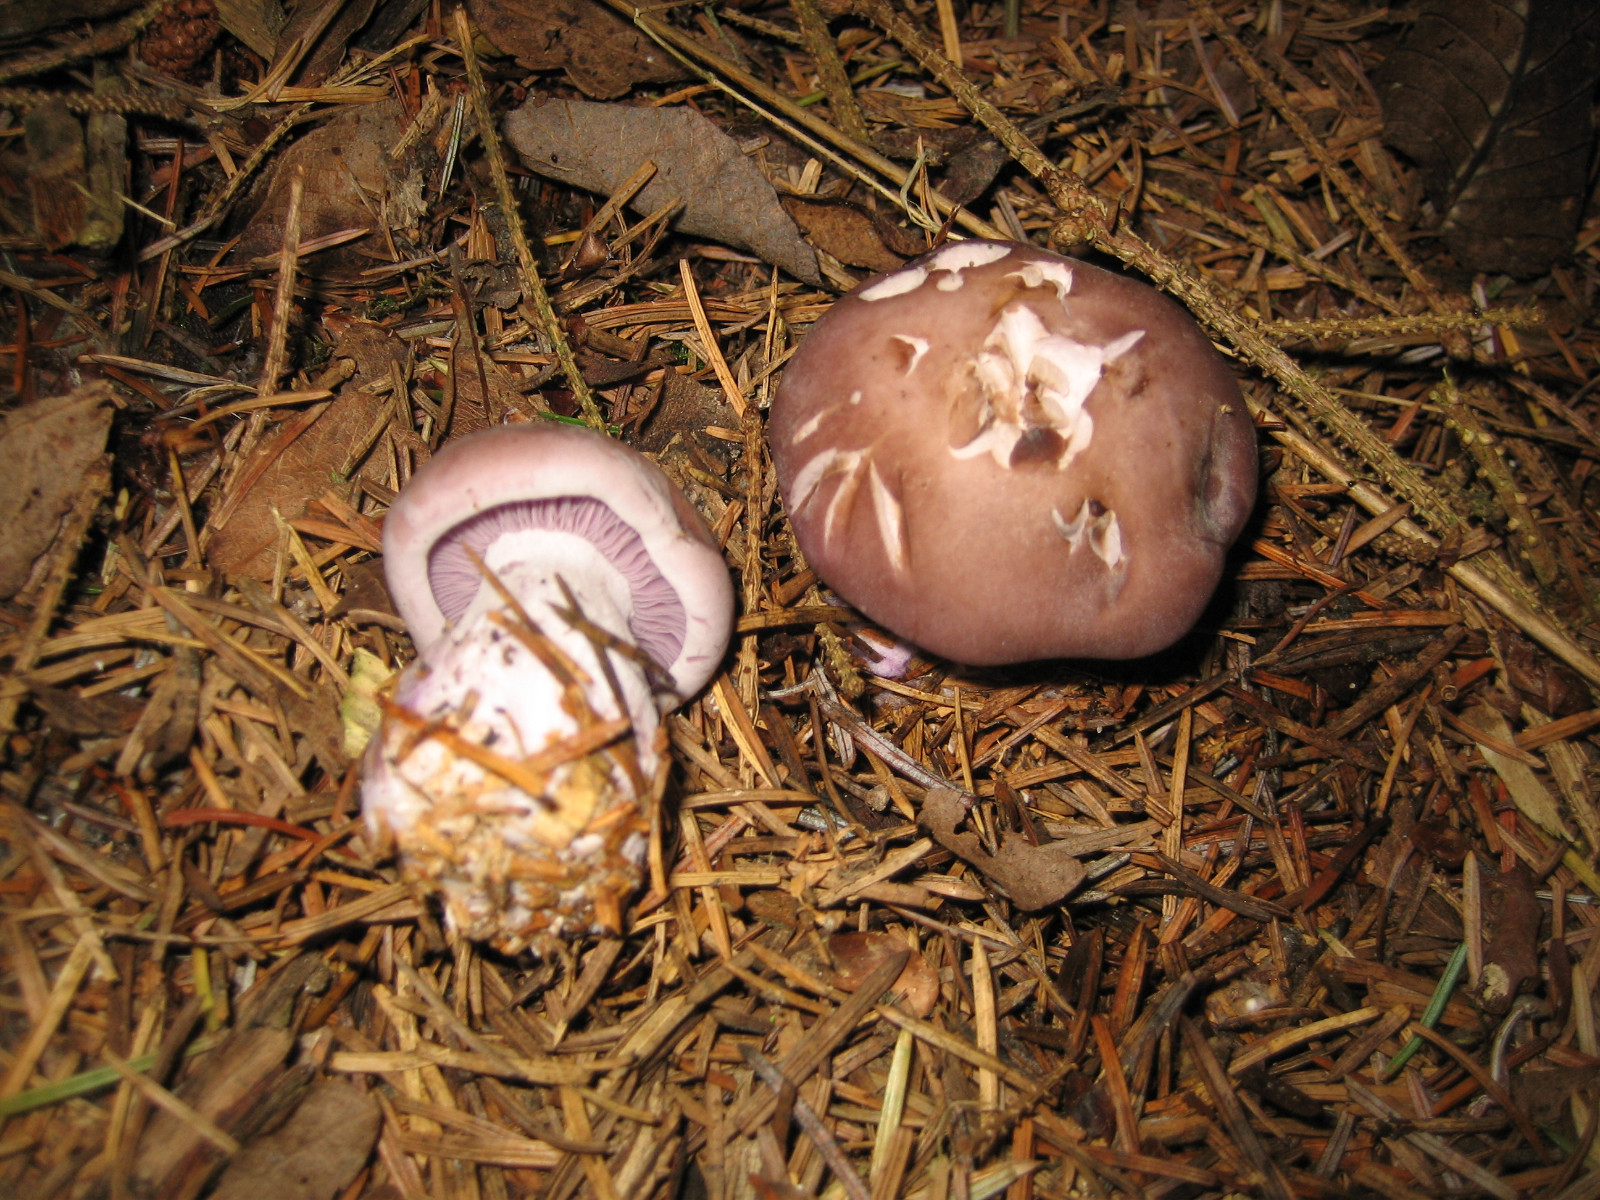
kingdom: Fungi
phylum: Basidiomycota
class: Agaricomycetes
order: Agaricales
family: Tricholomataceae
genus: Lepista
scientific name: Lepista nuda
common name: violet hekseringshat
